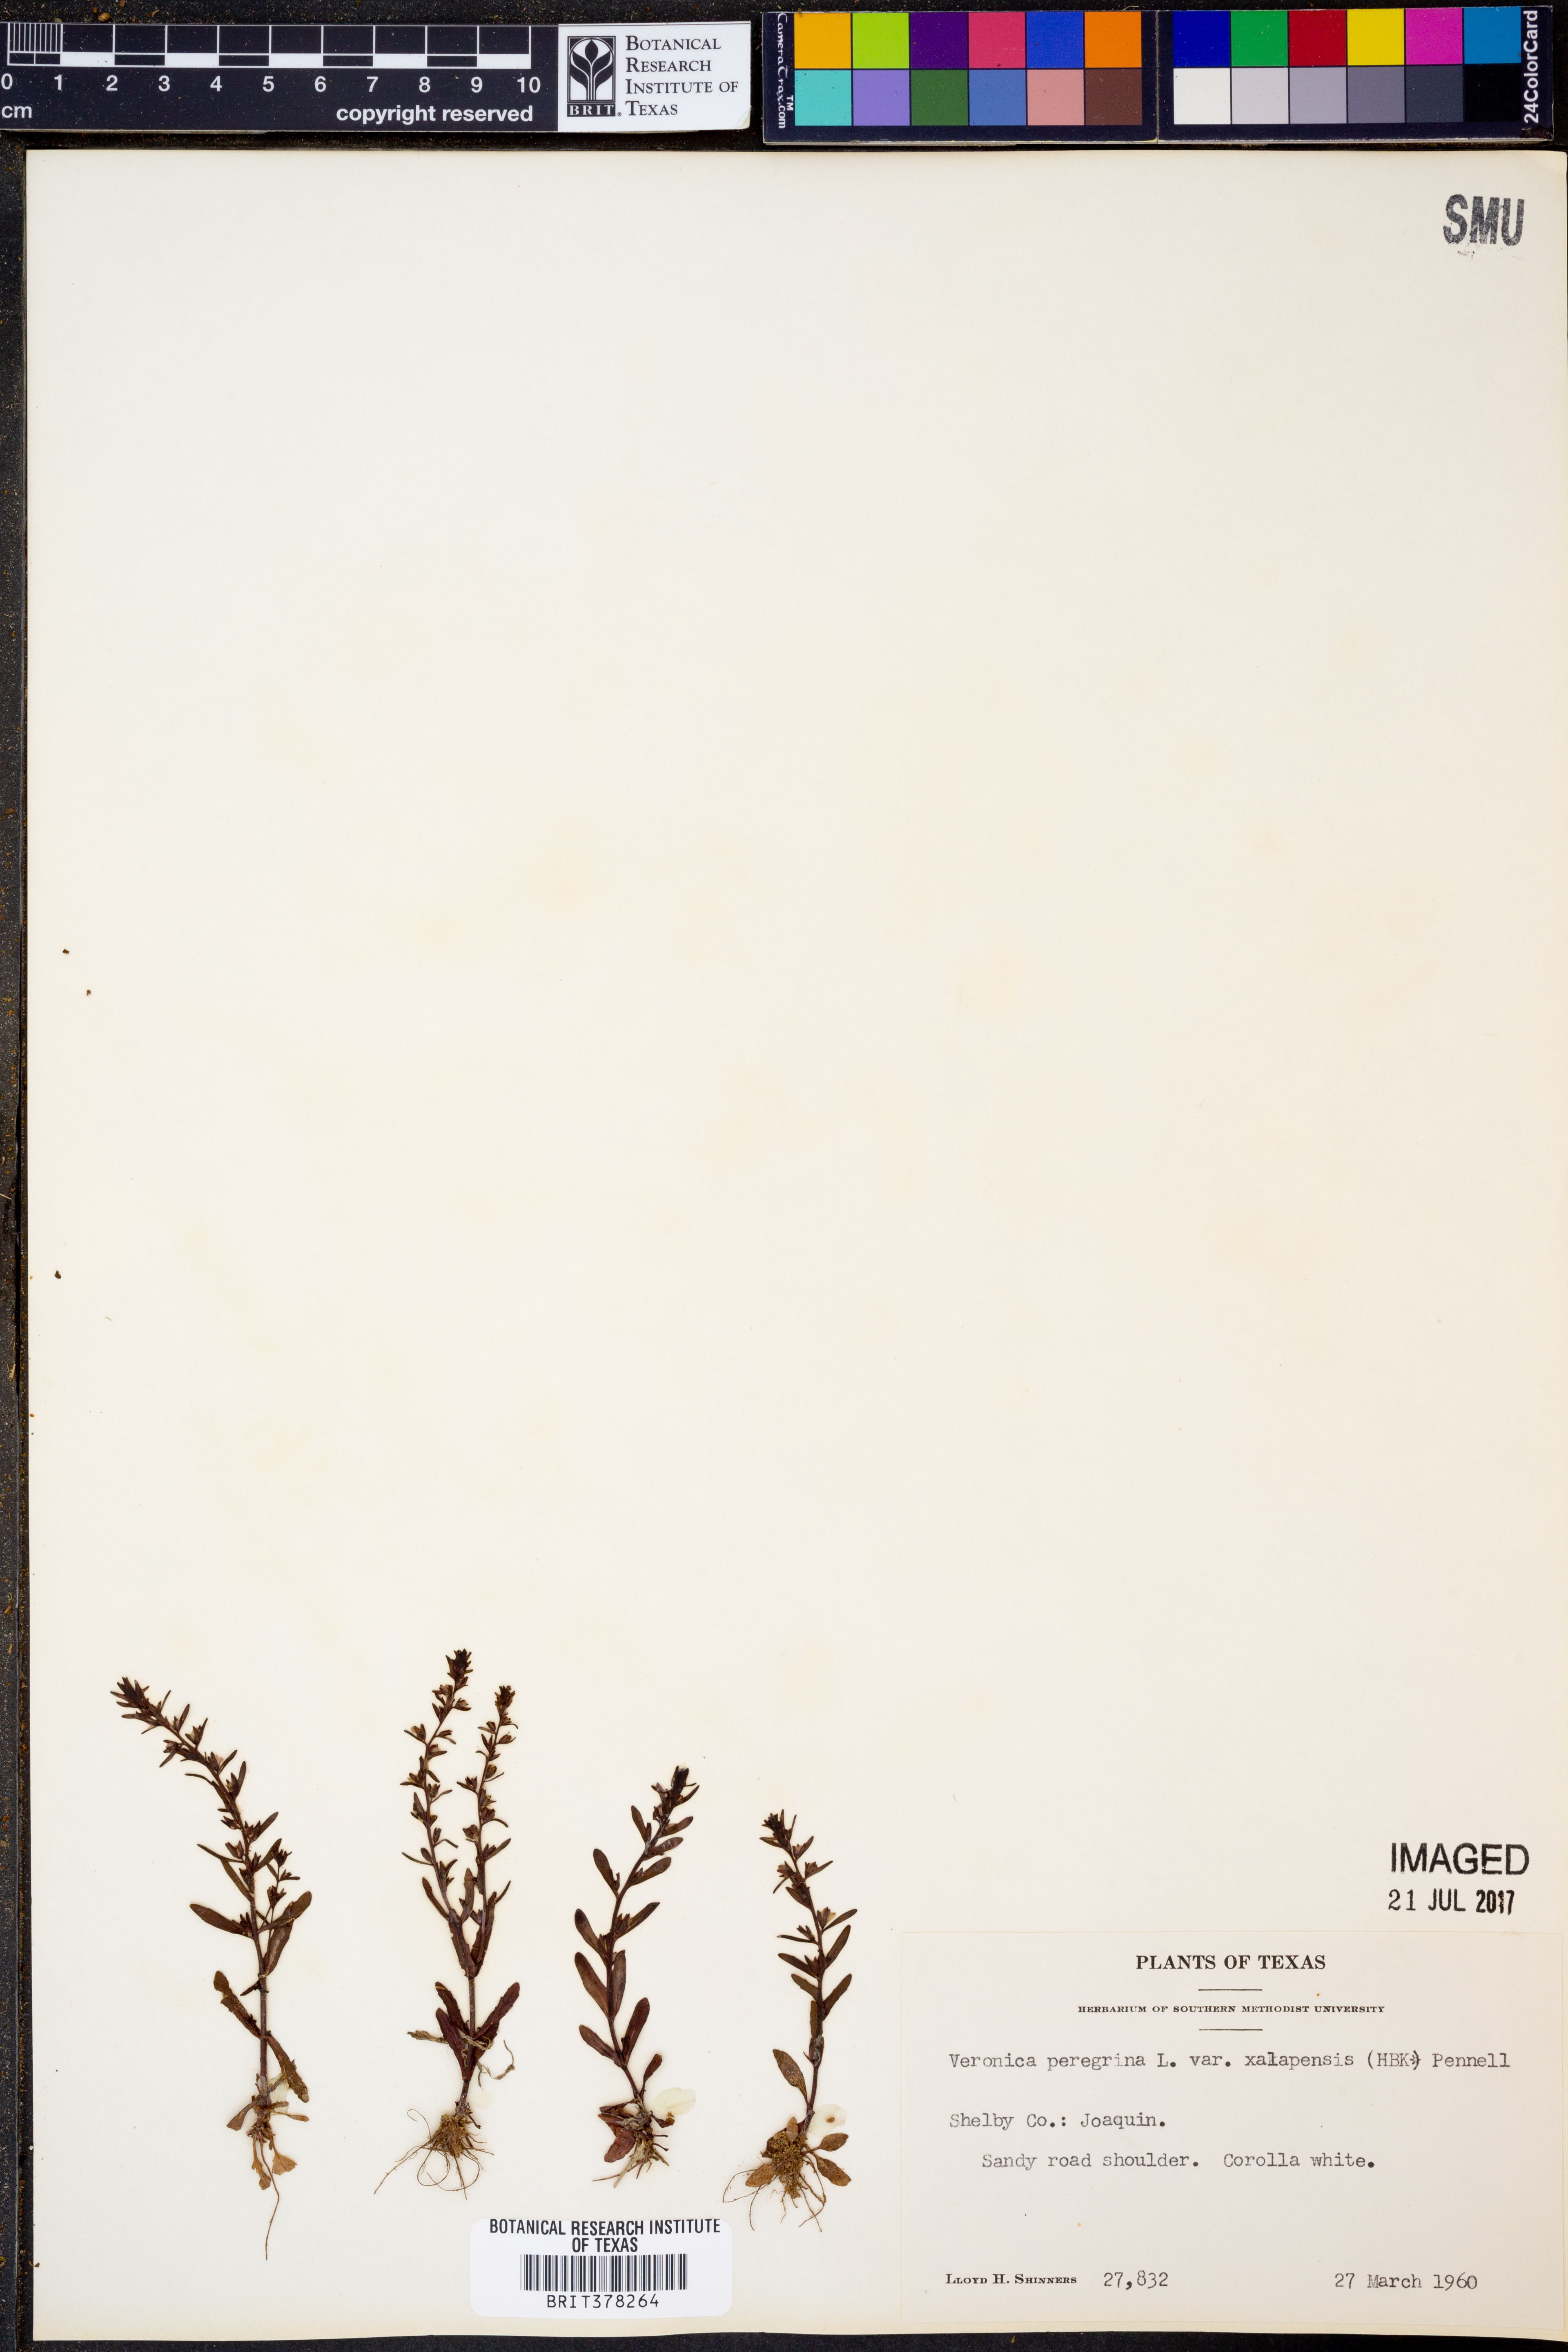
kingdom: Plantae
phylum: Tracheophyta
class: Magnoliopsida
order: Lamiales
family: Plantaginaceae
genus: Veronica
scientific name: Veronica peregrina
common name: Neckweed
